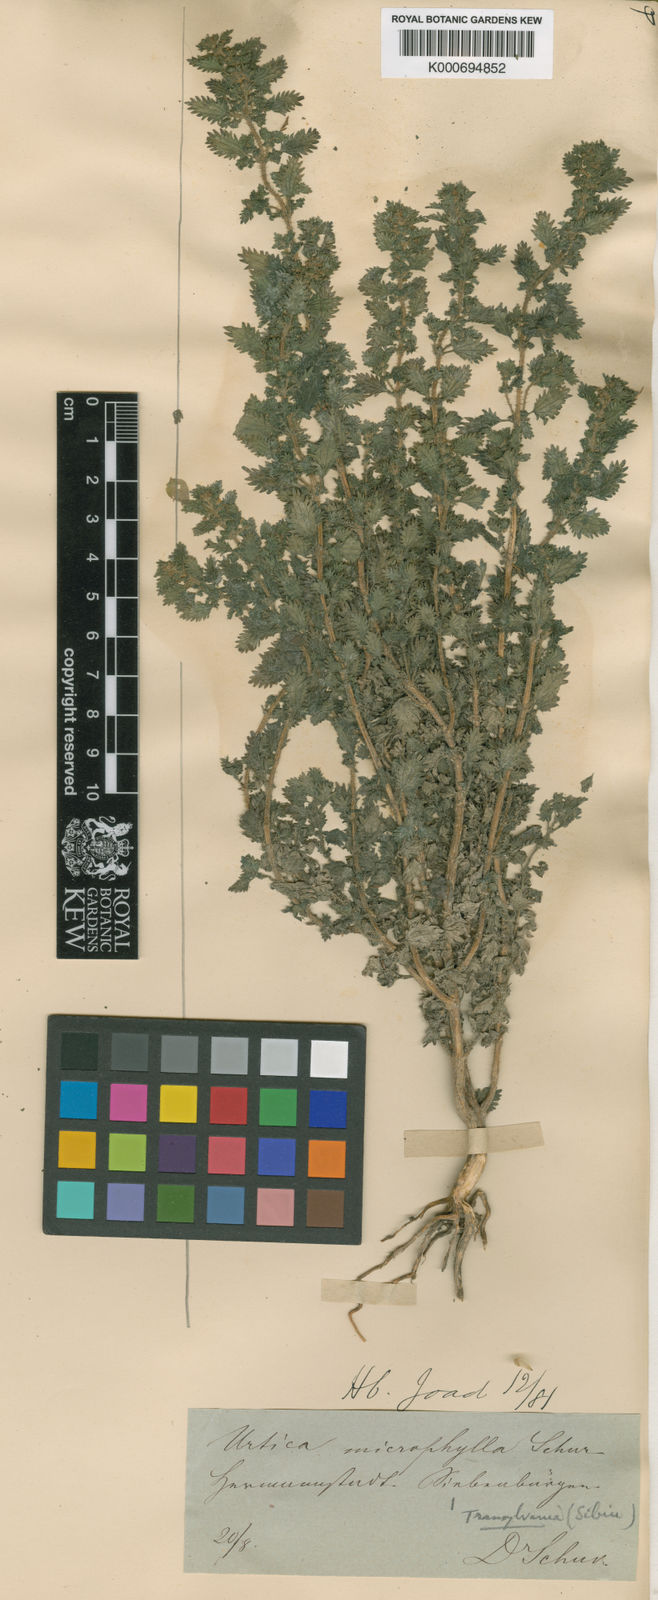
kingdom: Plantae
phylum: Tracheophyta
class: Magnoliopsida
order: Rosales
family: Urticaceae
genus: Urtica
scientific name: Urtica urens
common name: Dwarf nettle
